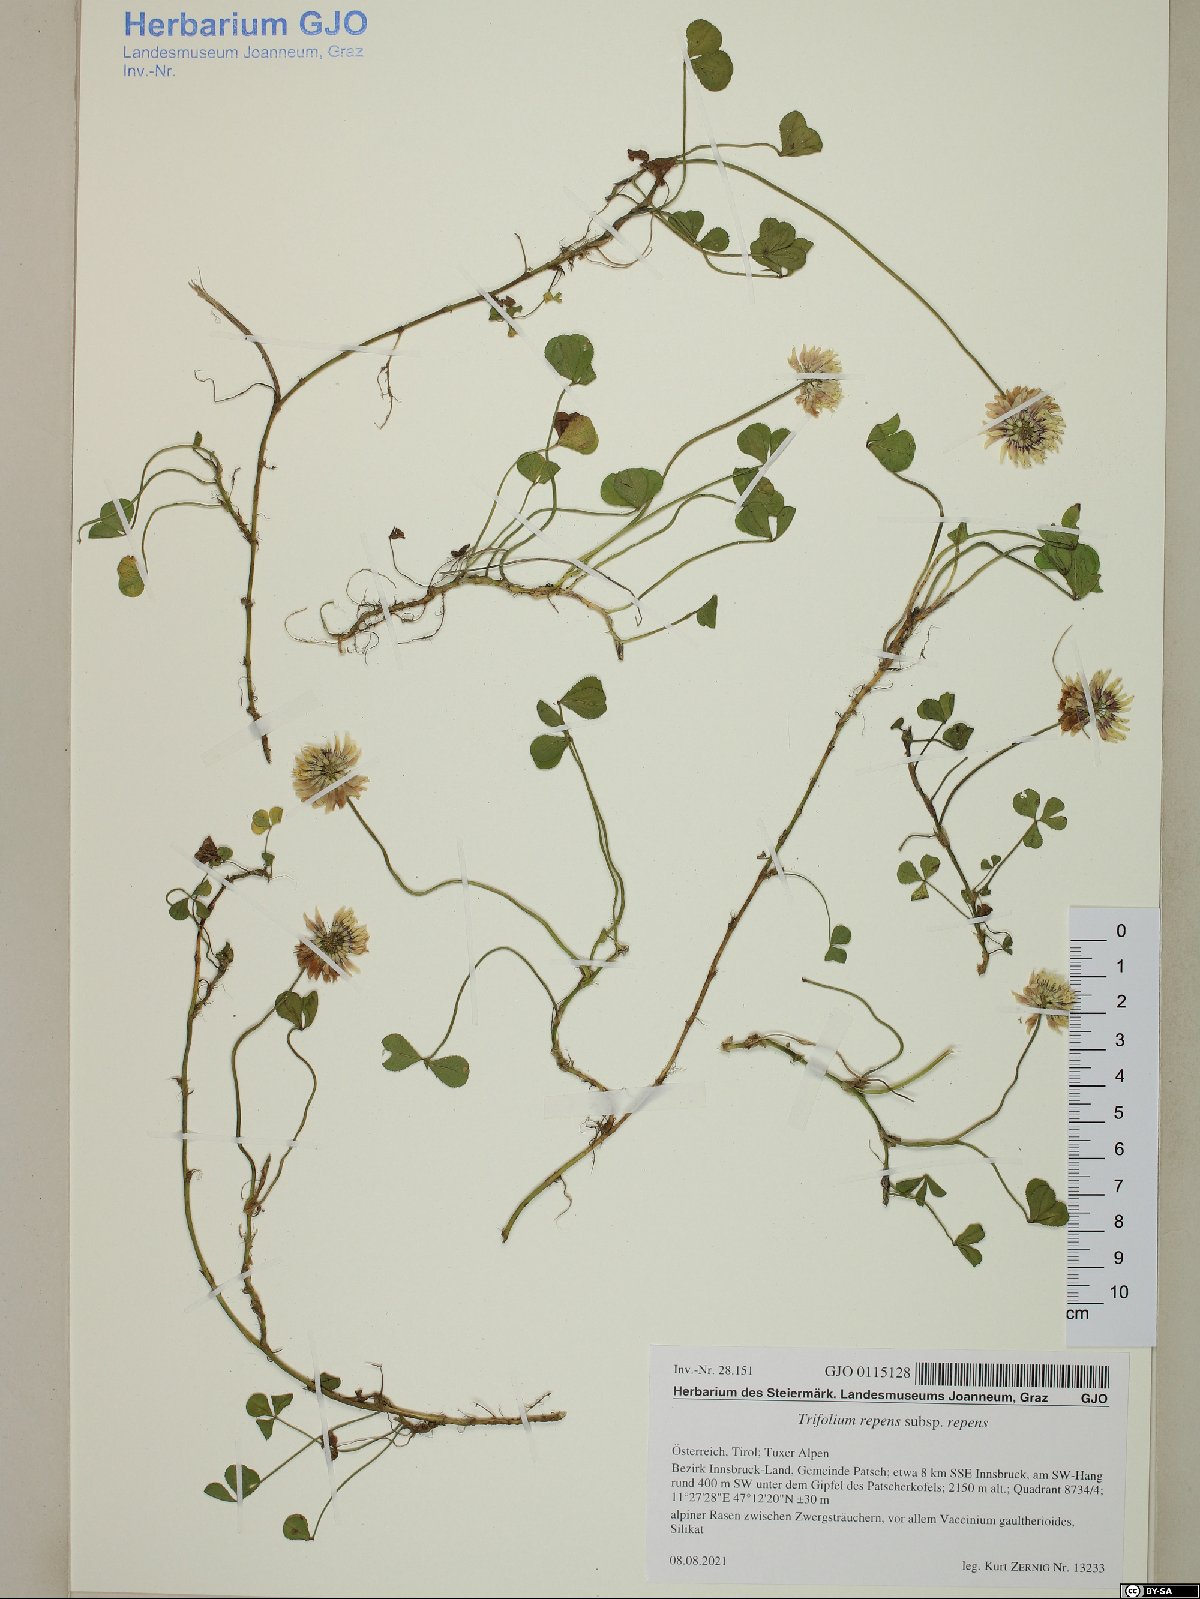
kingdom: Plantae
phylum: Tracheophyta
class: Magnoliopsida
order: Fabales
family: Fabaceae
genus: Trifolium
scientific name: Trifolium repens
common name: White clover
